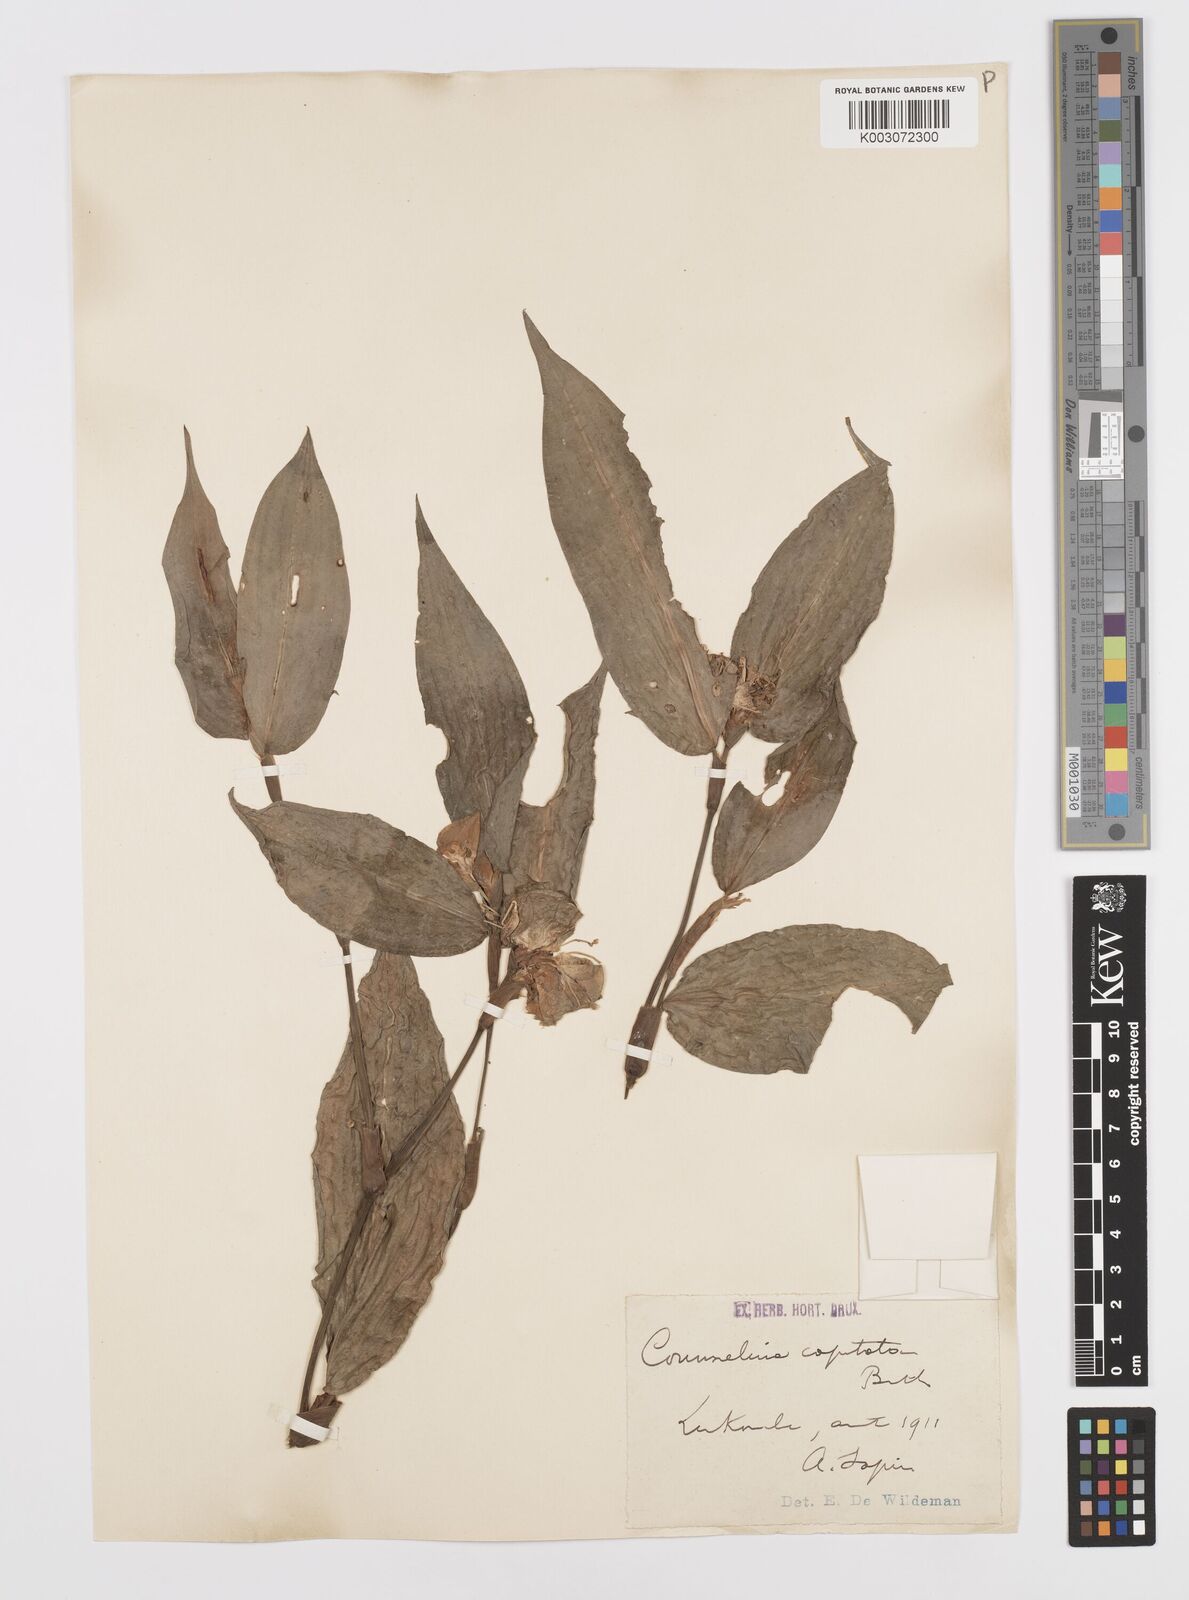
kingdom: Plantae
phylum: Tracheophyta
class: Liliopsida
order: Commelinales
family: Commelinaceae
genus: Commelina
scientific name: Commelina capitata
